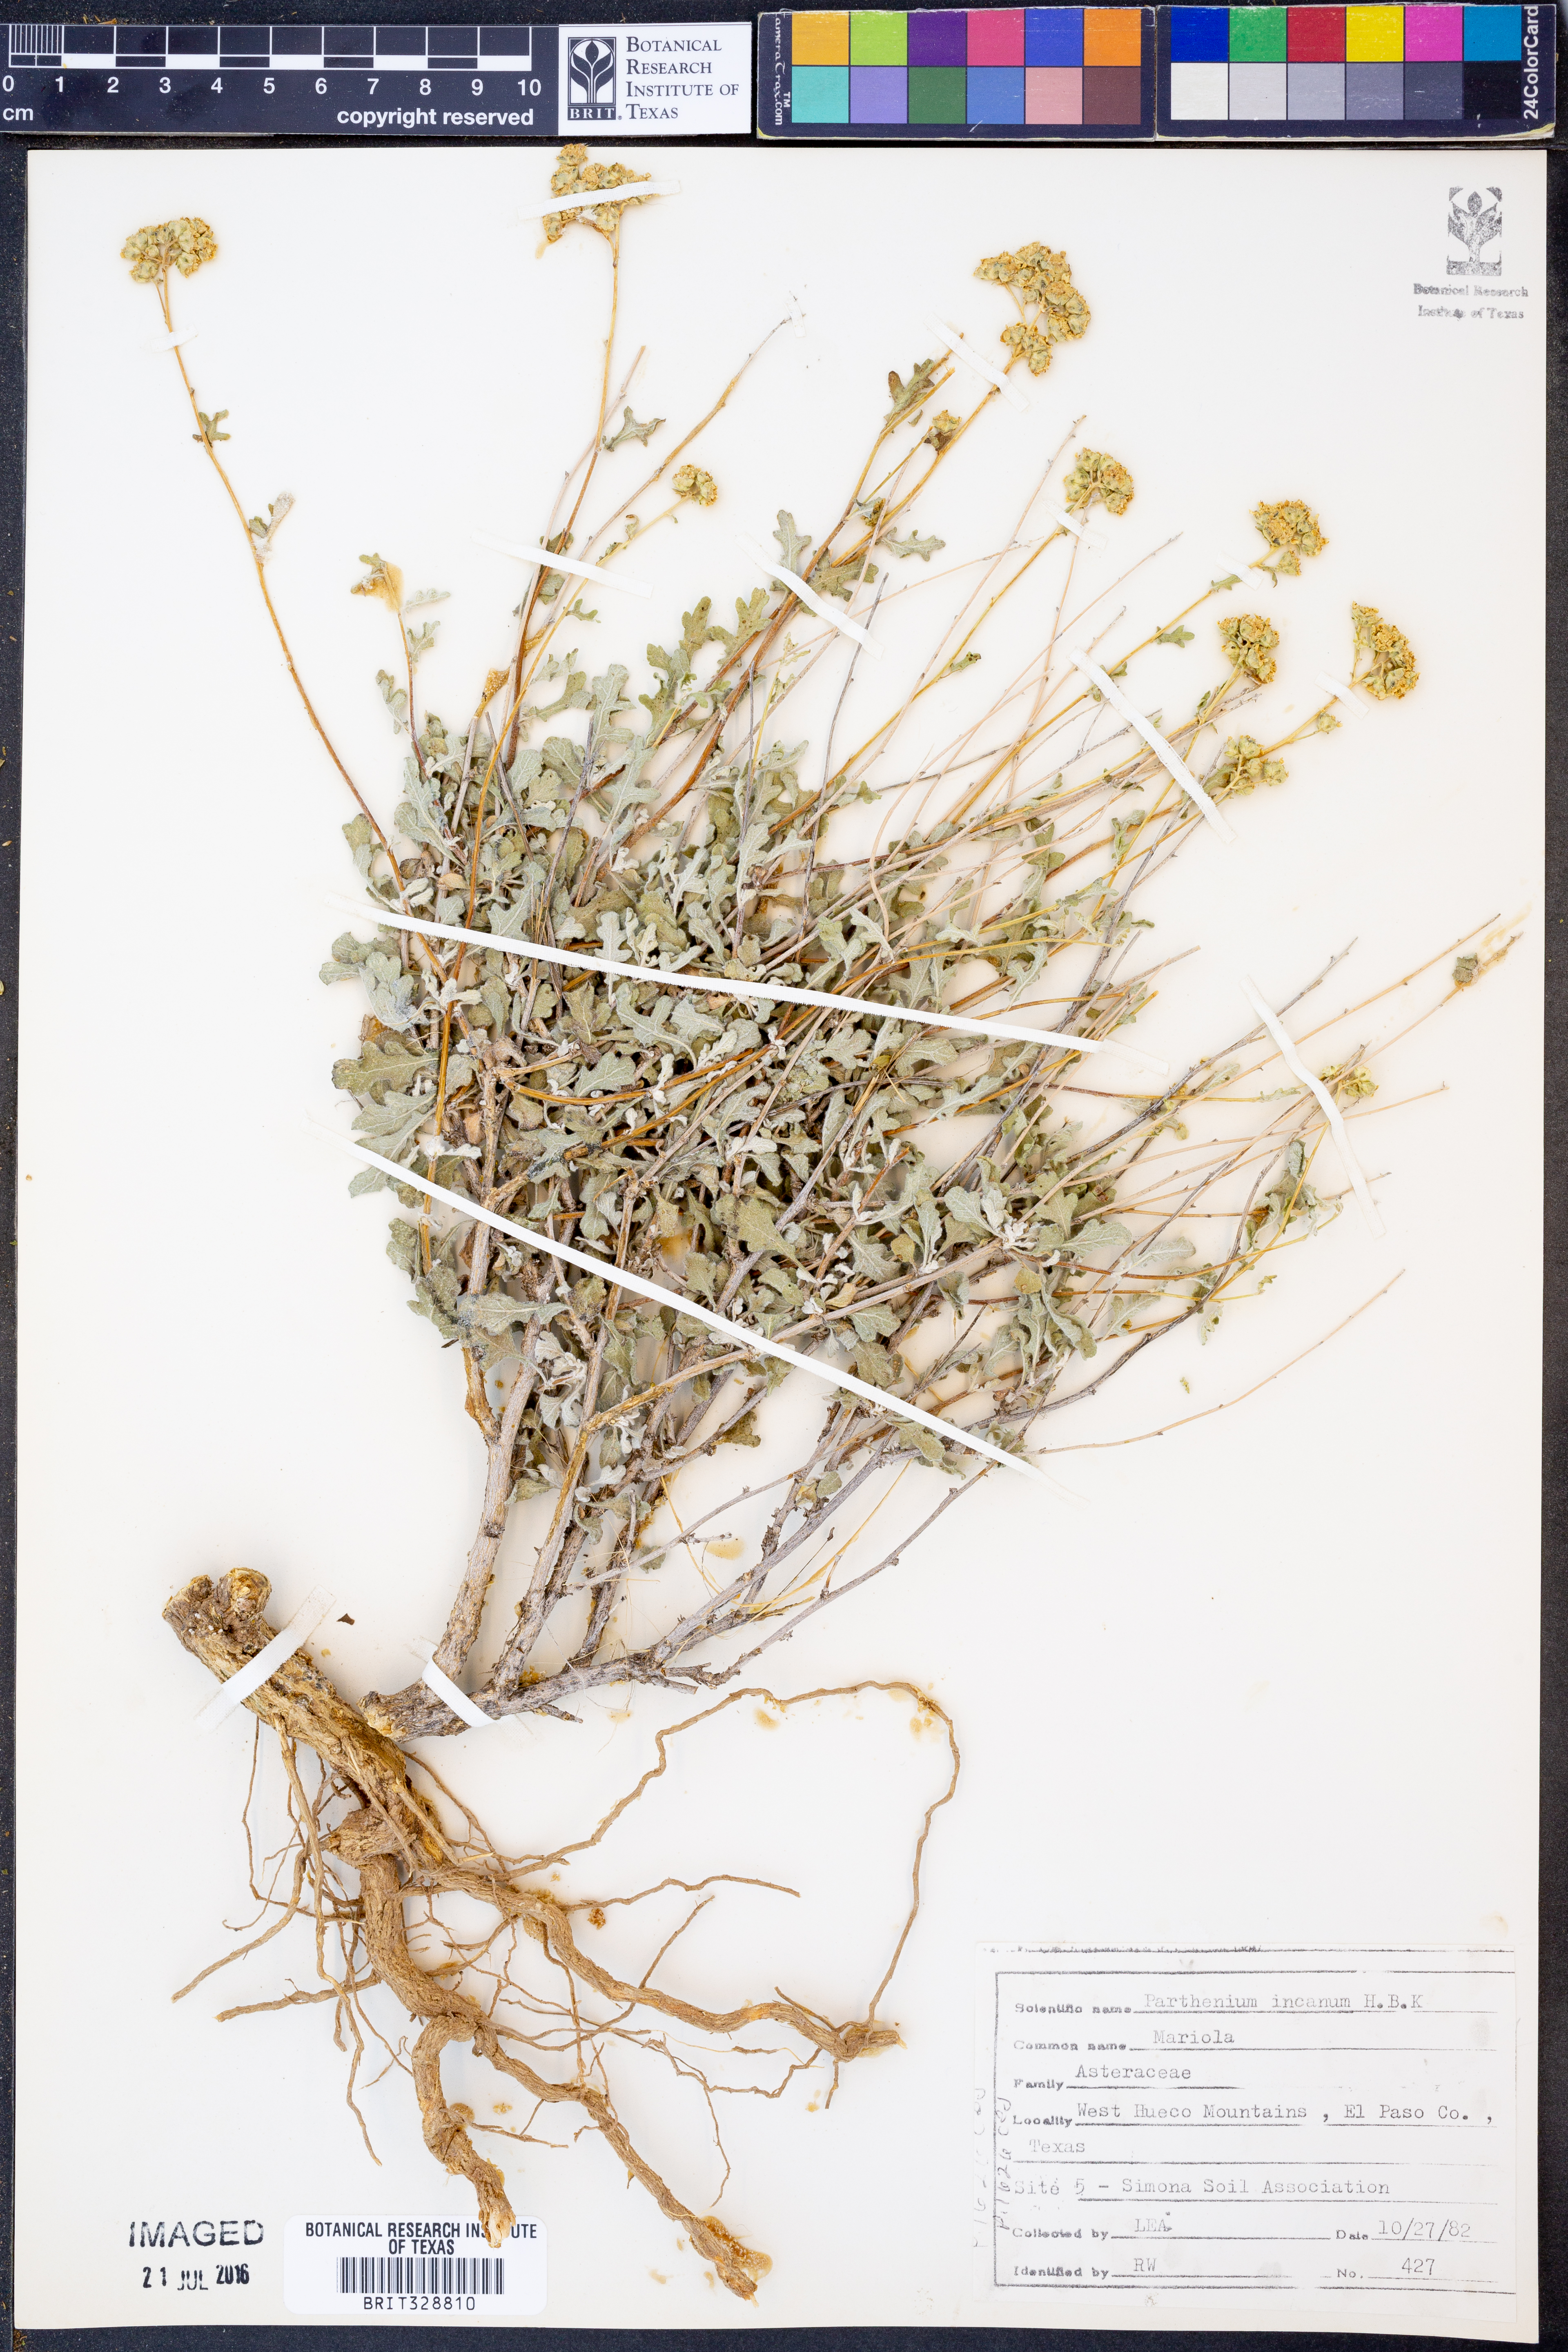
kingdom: Plantae
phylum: Tracheophyta
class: Magnoliopsida
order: Asterales
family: Asteraceae
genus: Parthenium
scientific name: Parthenium incanum
